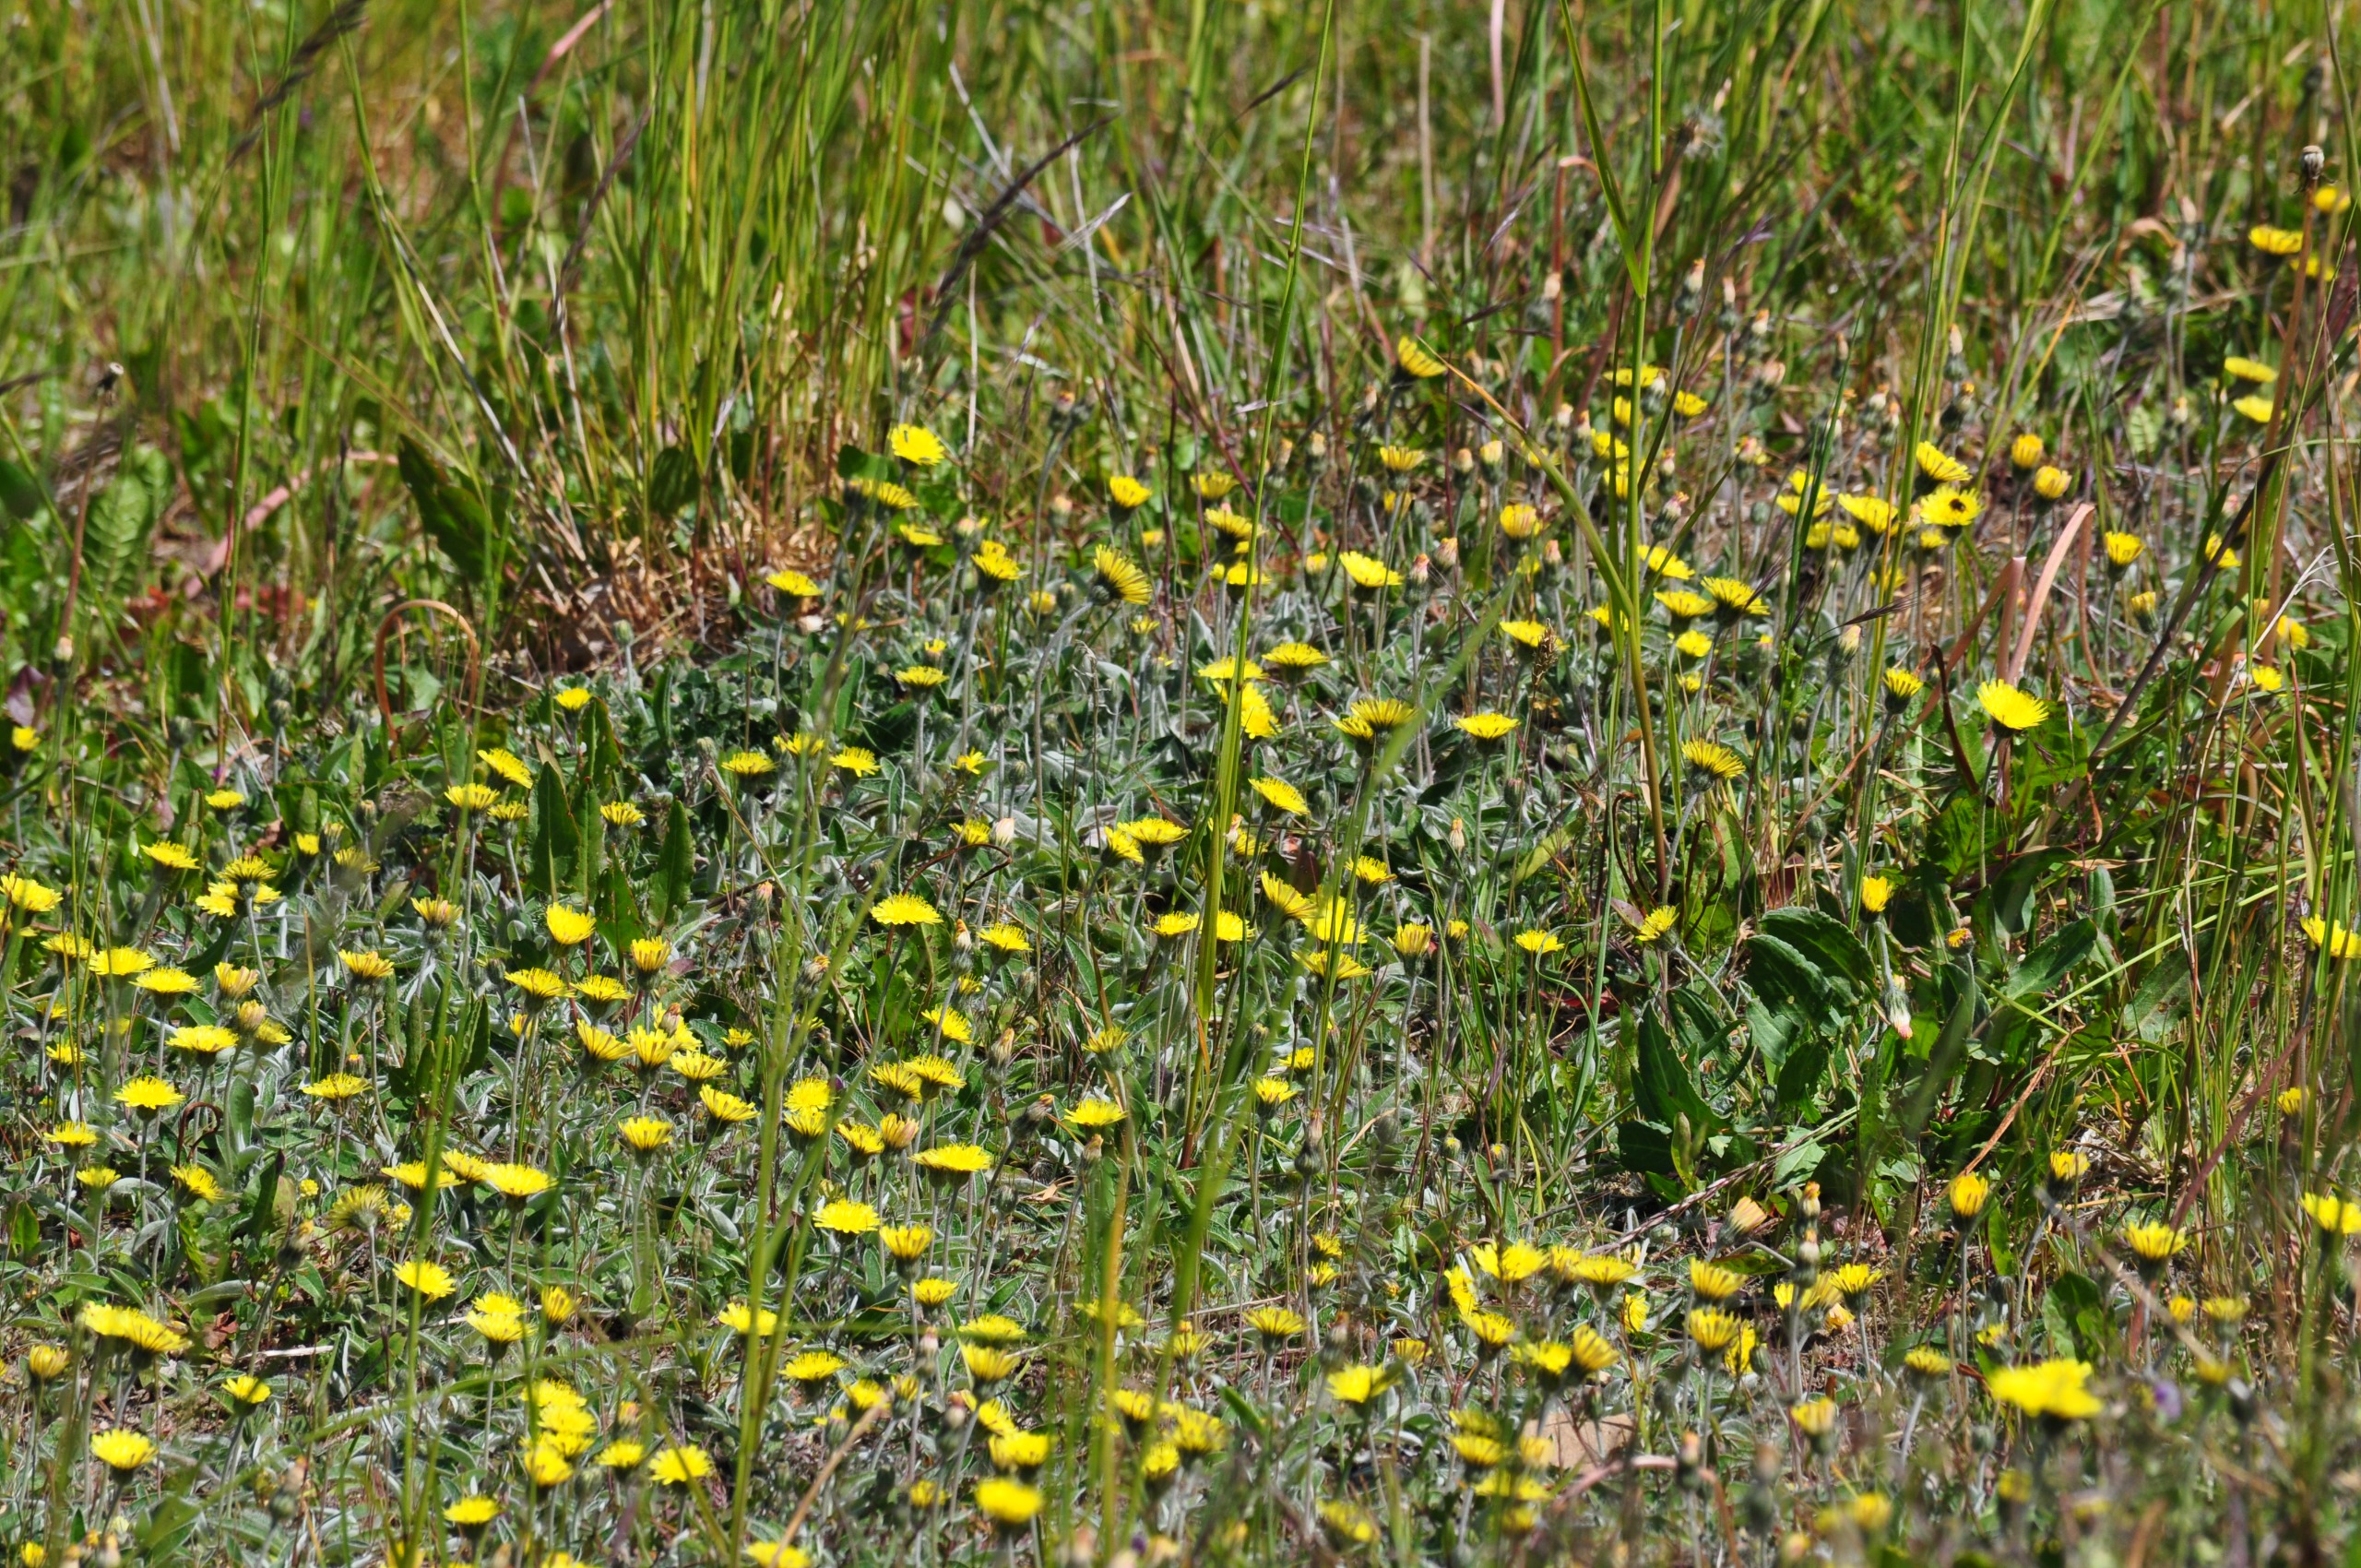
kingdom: Plantae
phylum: Tracheophyta
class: Magnoliopsida
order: Asterales
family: Asteraceae
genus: Pilosella
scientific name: Pilosella officinarum
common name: Håret høgeurt
